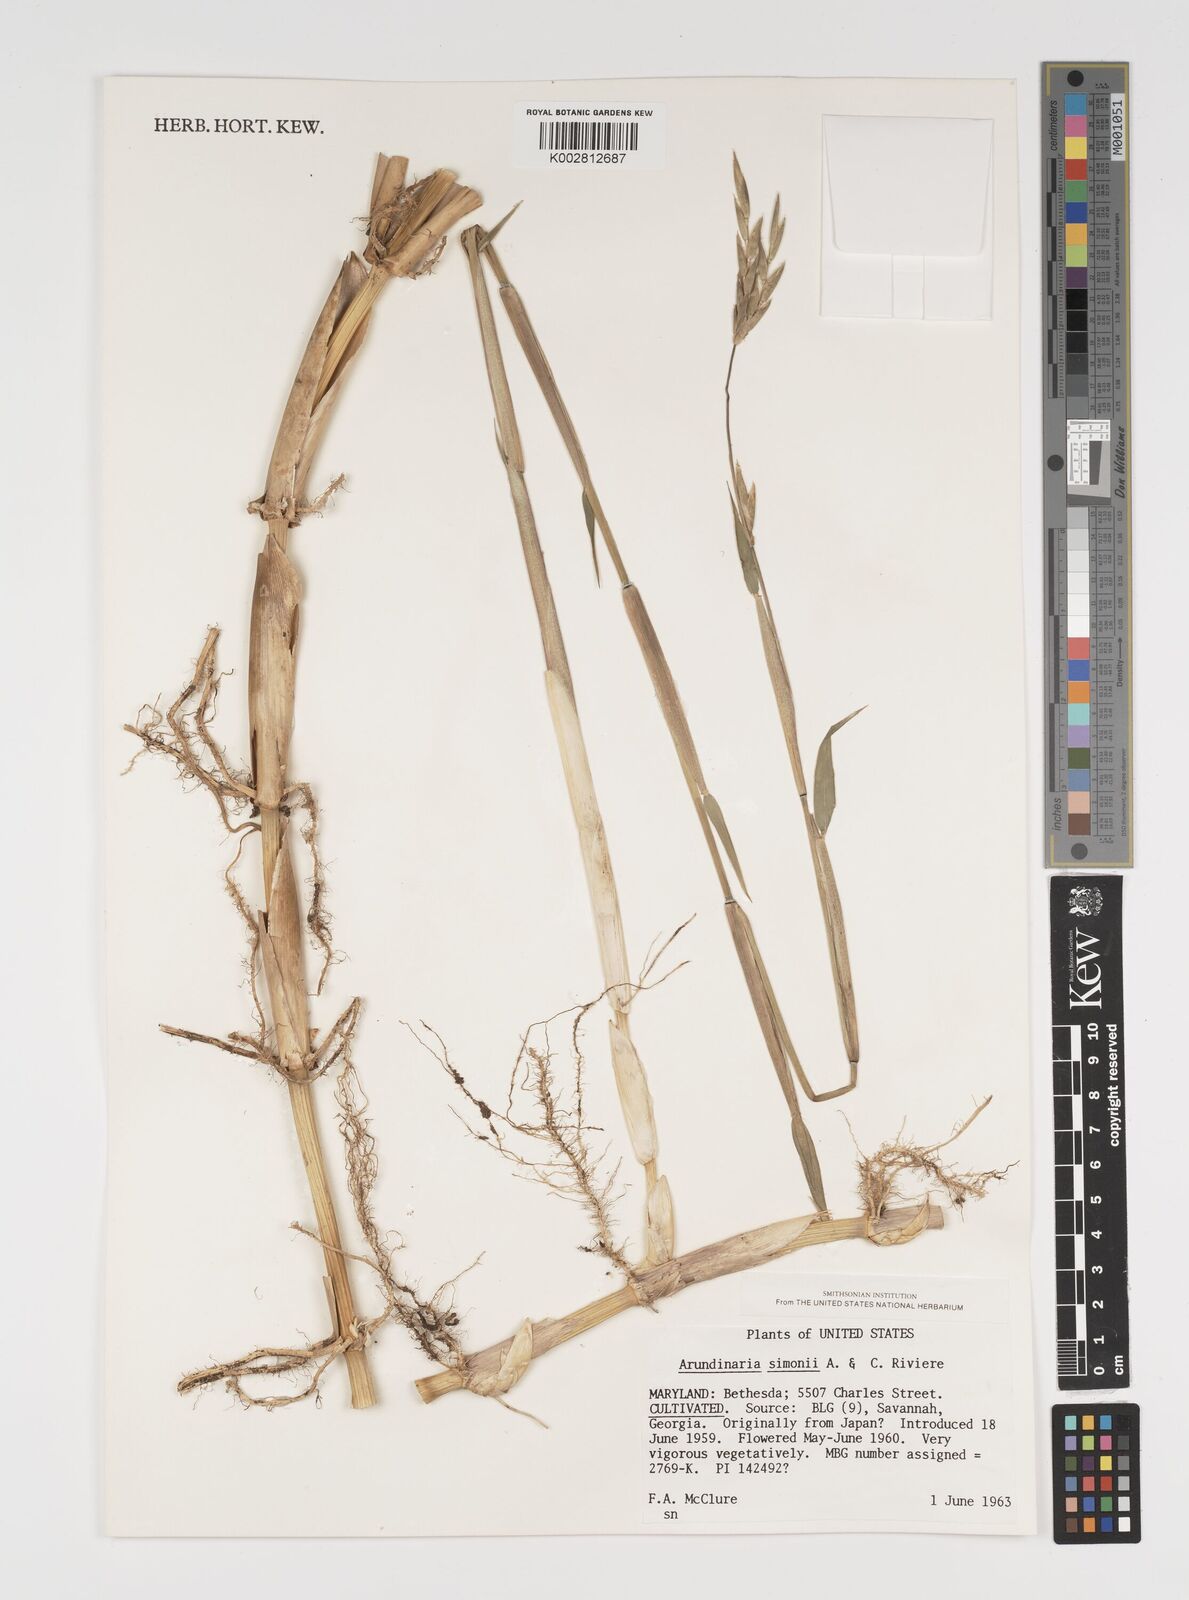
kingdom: Plantae
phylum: Tracheophyta
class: Liliopsida
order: Poales
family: Poaceae
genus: Pleioblastus
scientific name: Pleioblastus simonii
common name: Simon bamboo
